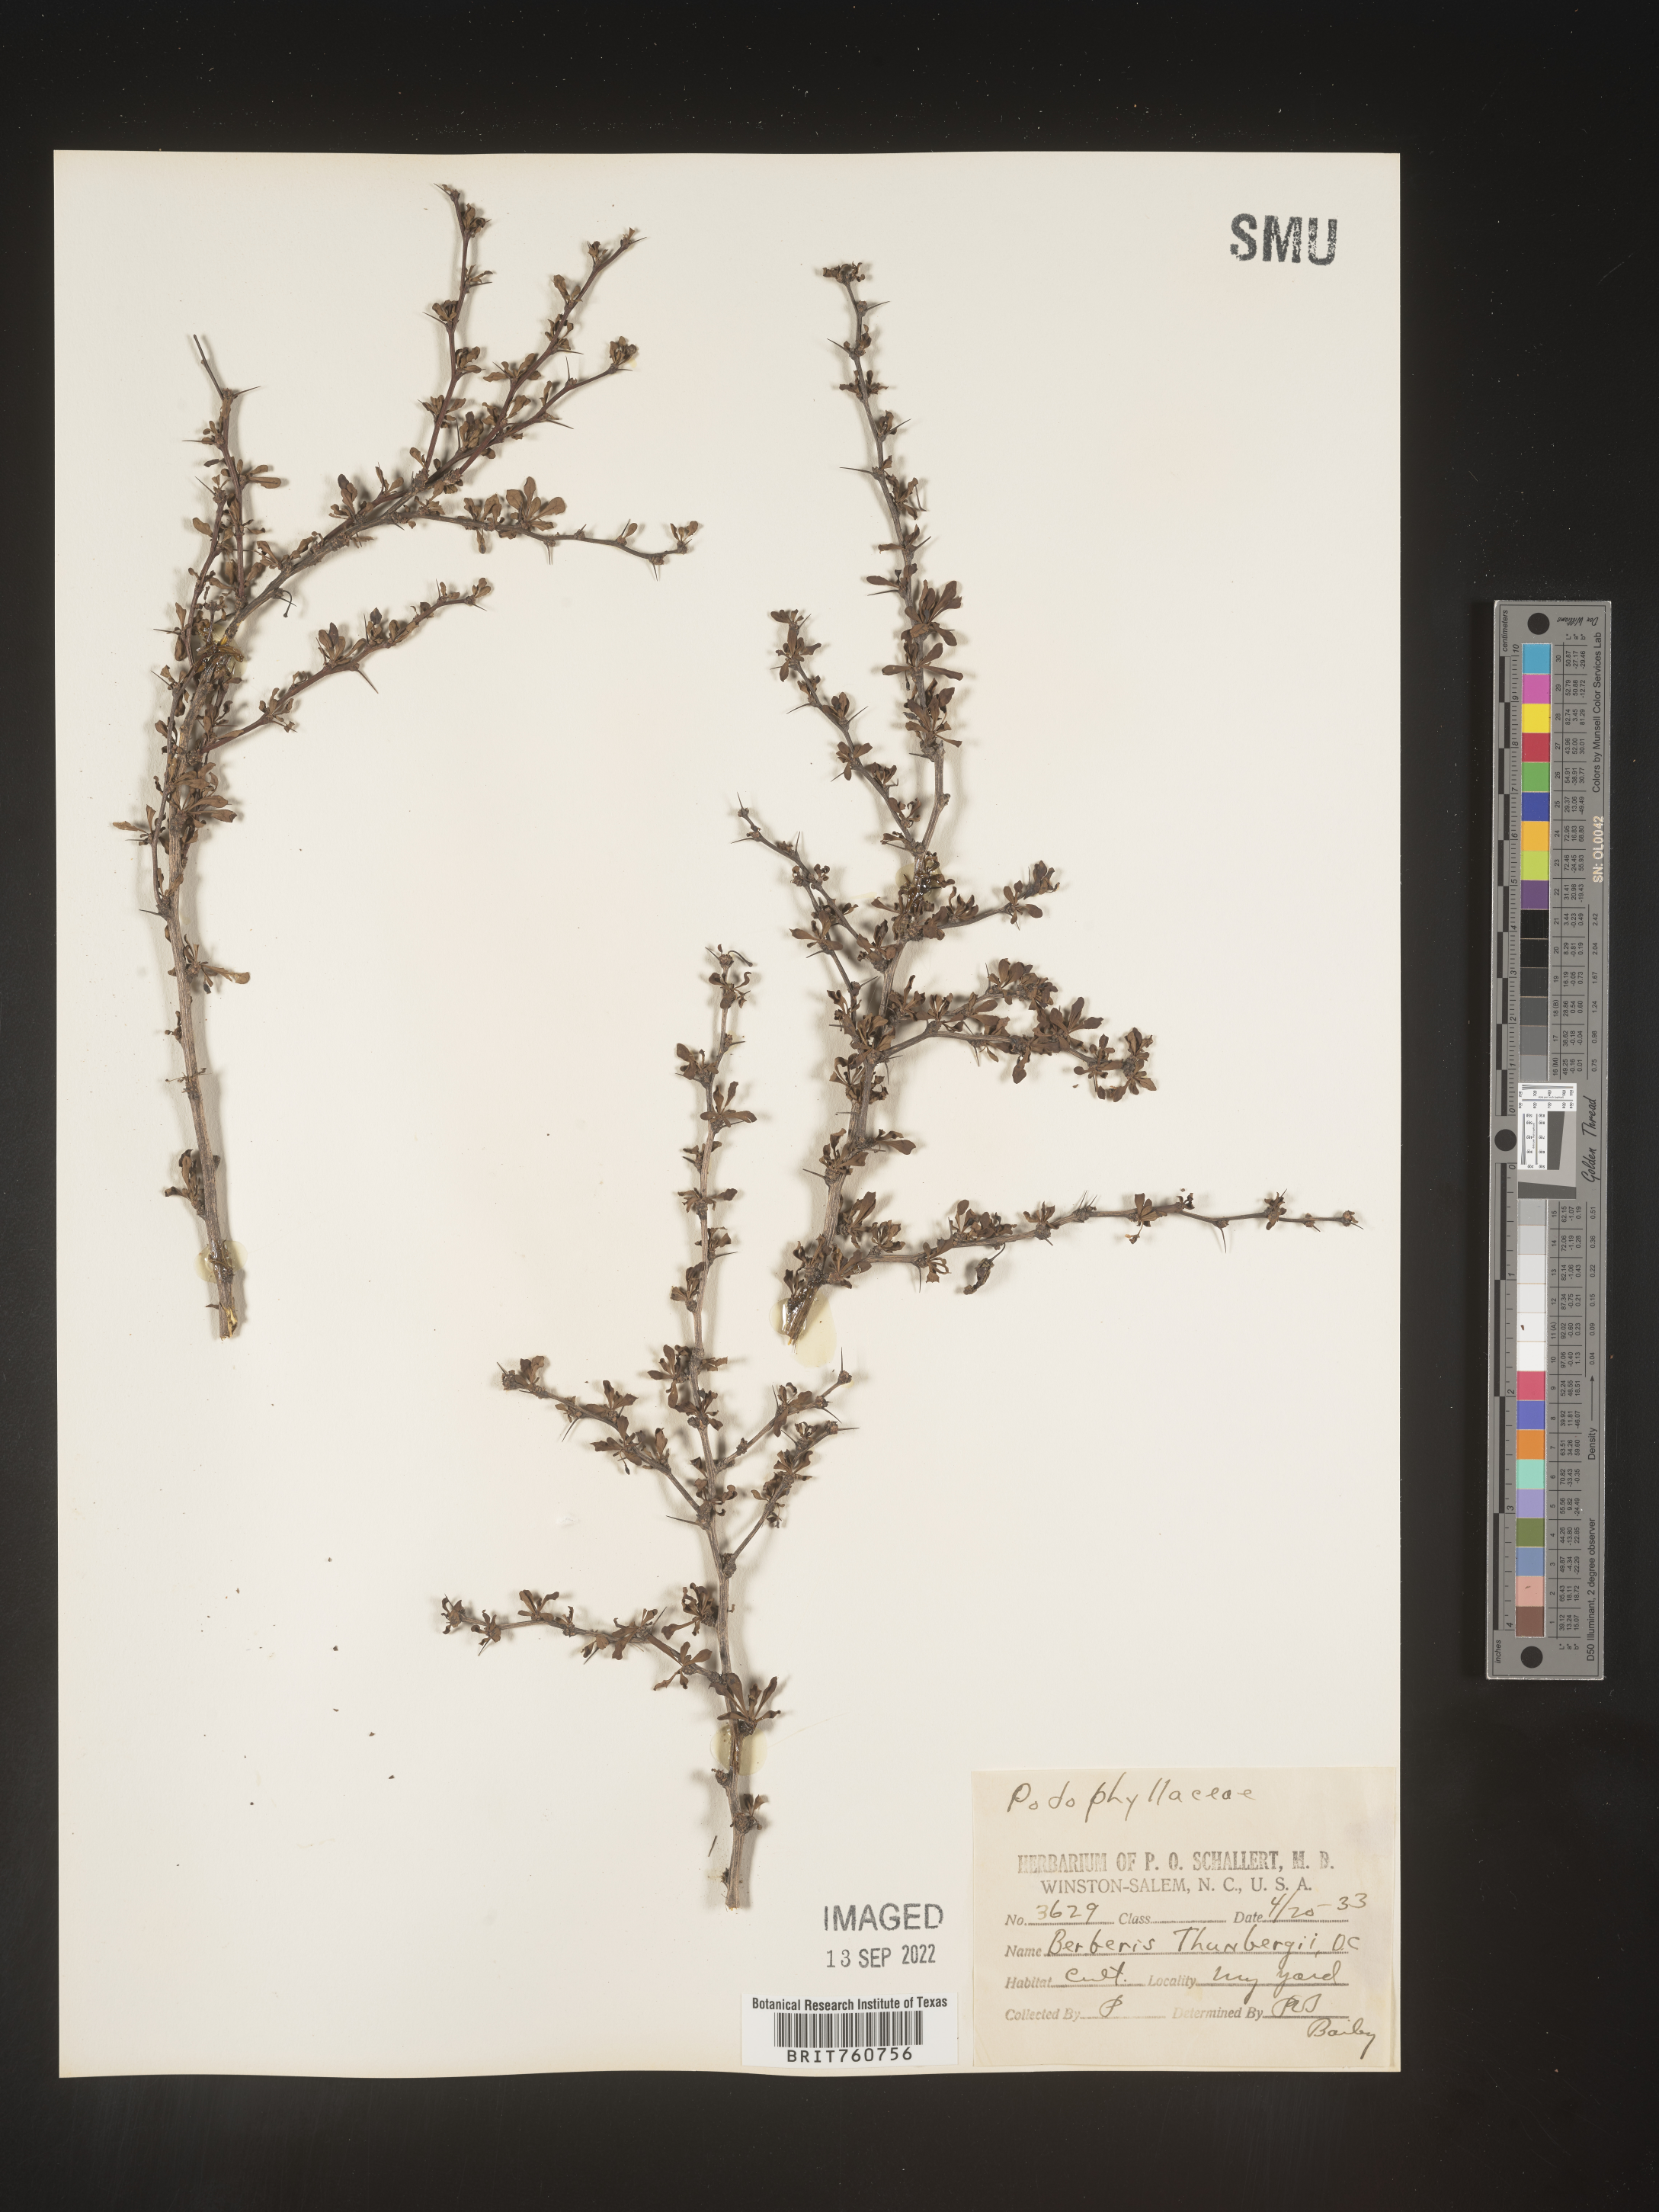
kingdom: Plantae
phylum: Tracheophyta
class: Magnoliopsida
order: Ranunculales
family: Berberidaceae
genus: Berberis
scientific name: Berberis
